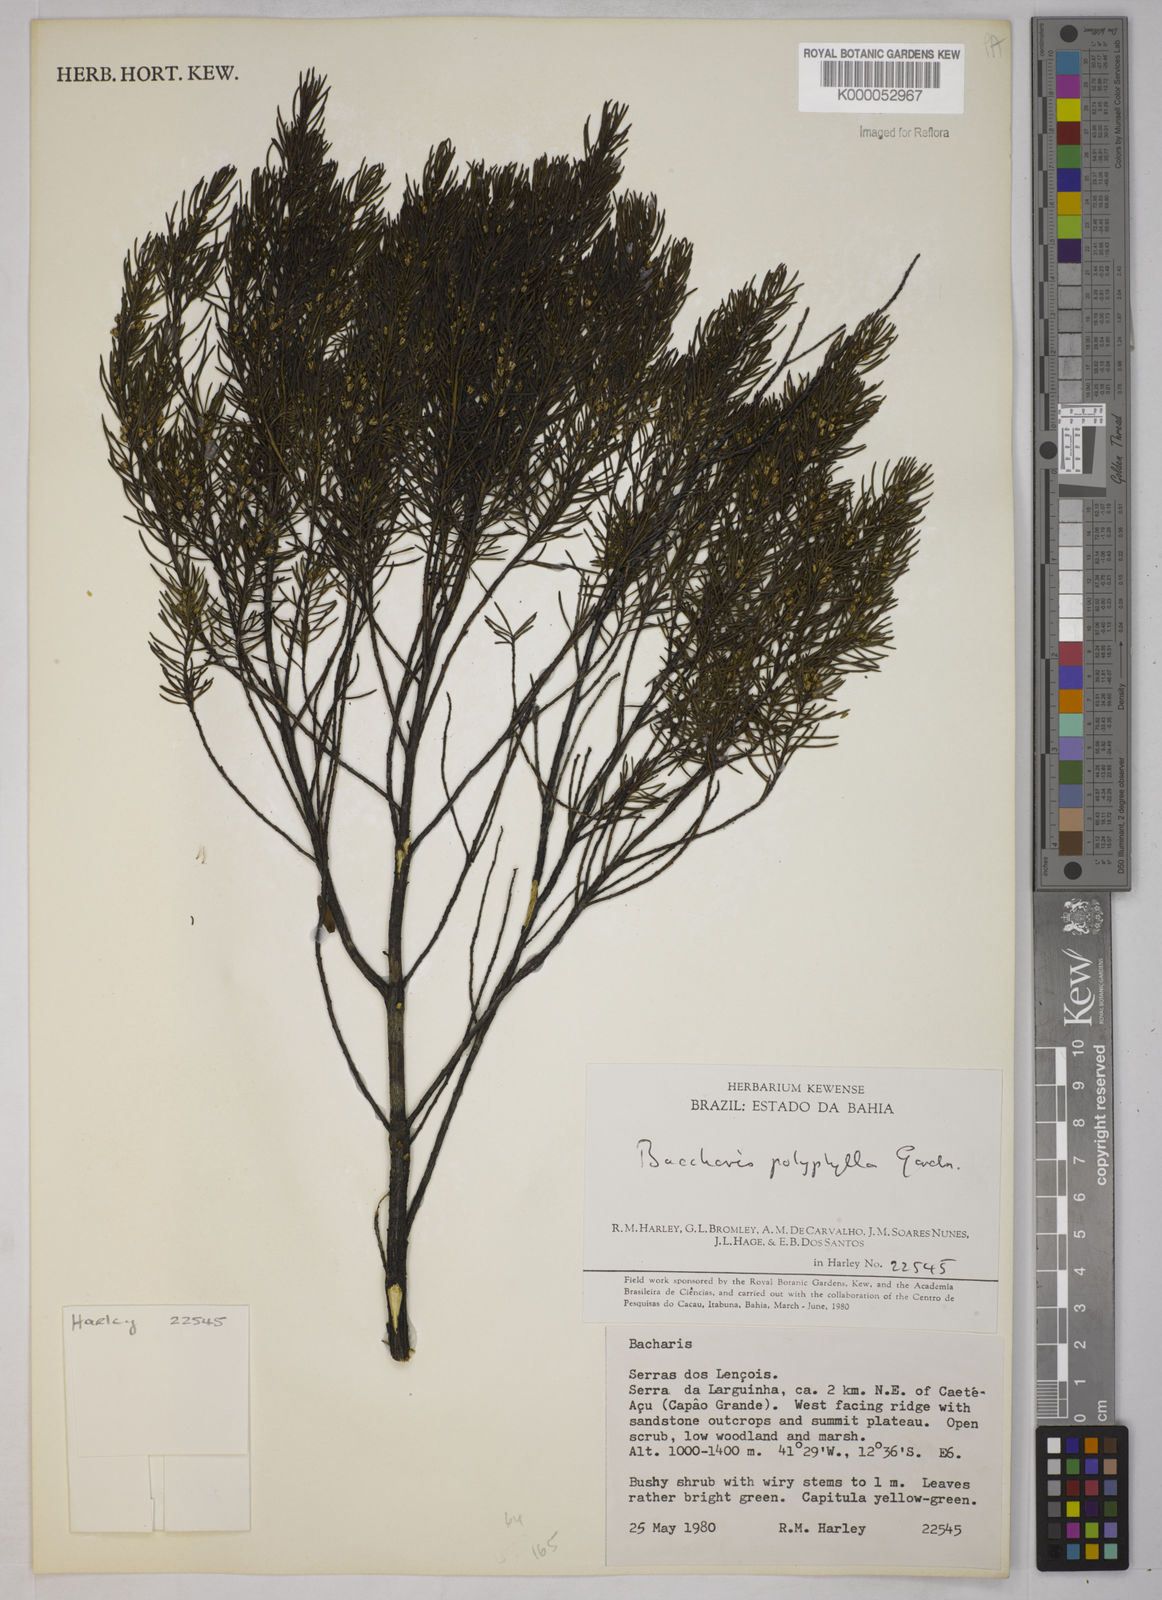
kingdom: Plantae
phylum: Tracheophyta
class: Magnoliopsida
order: Asterales
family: Asteraceae
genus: Baccharis
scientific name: Baccharis polyphylla
